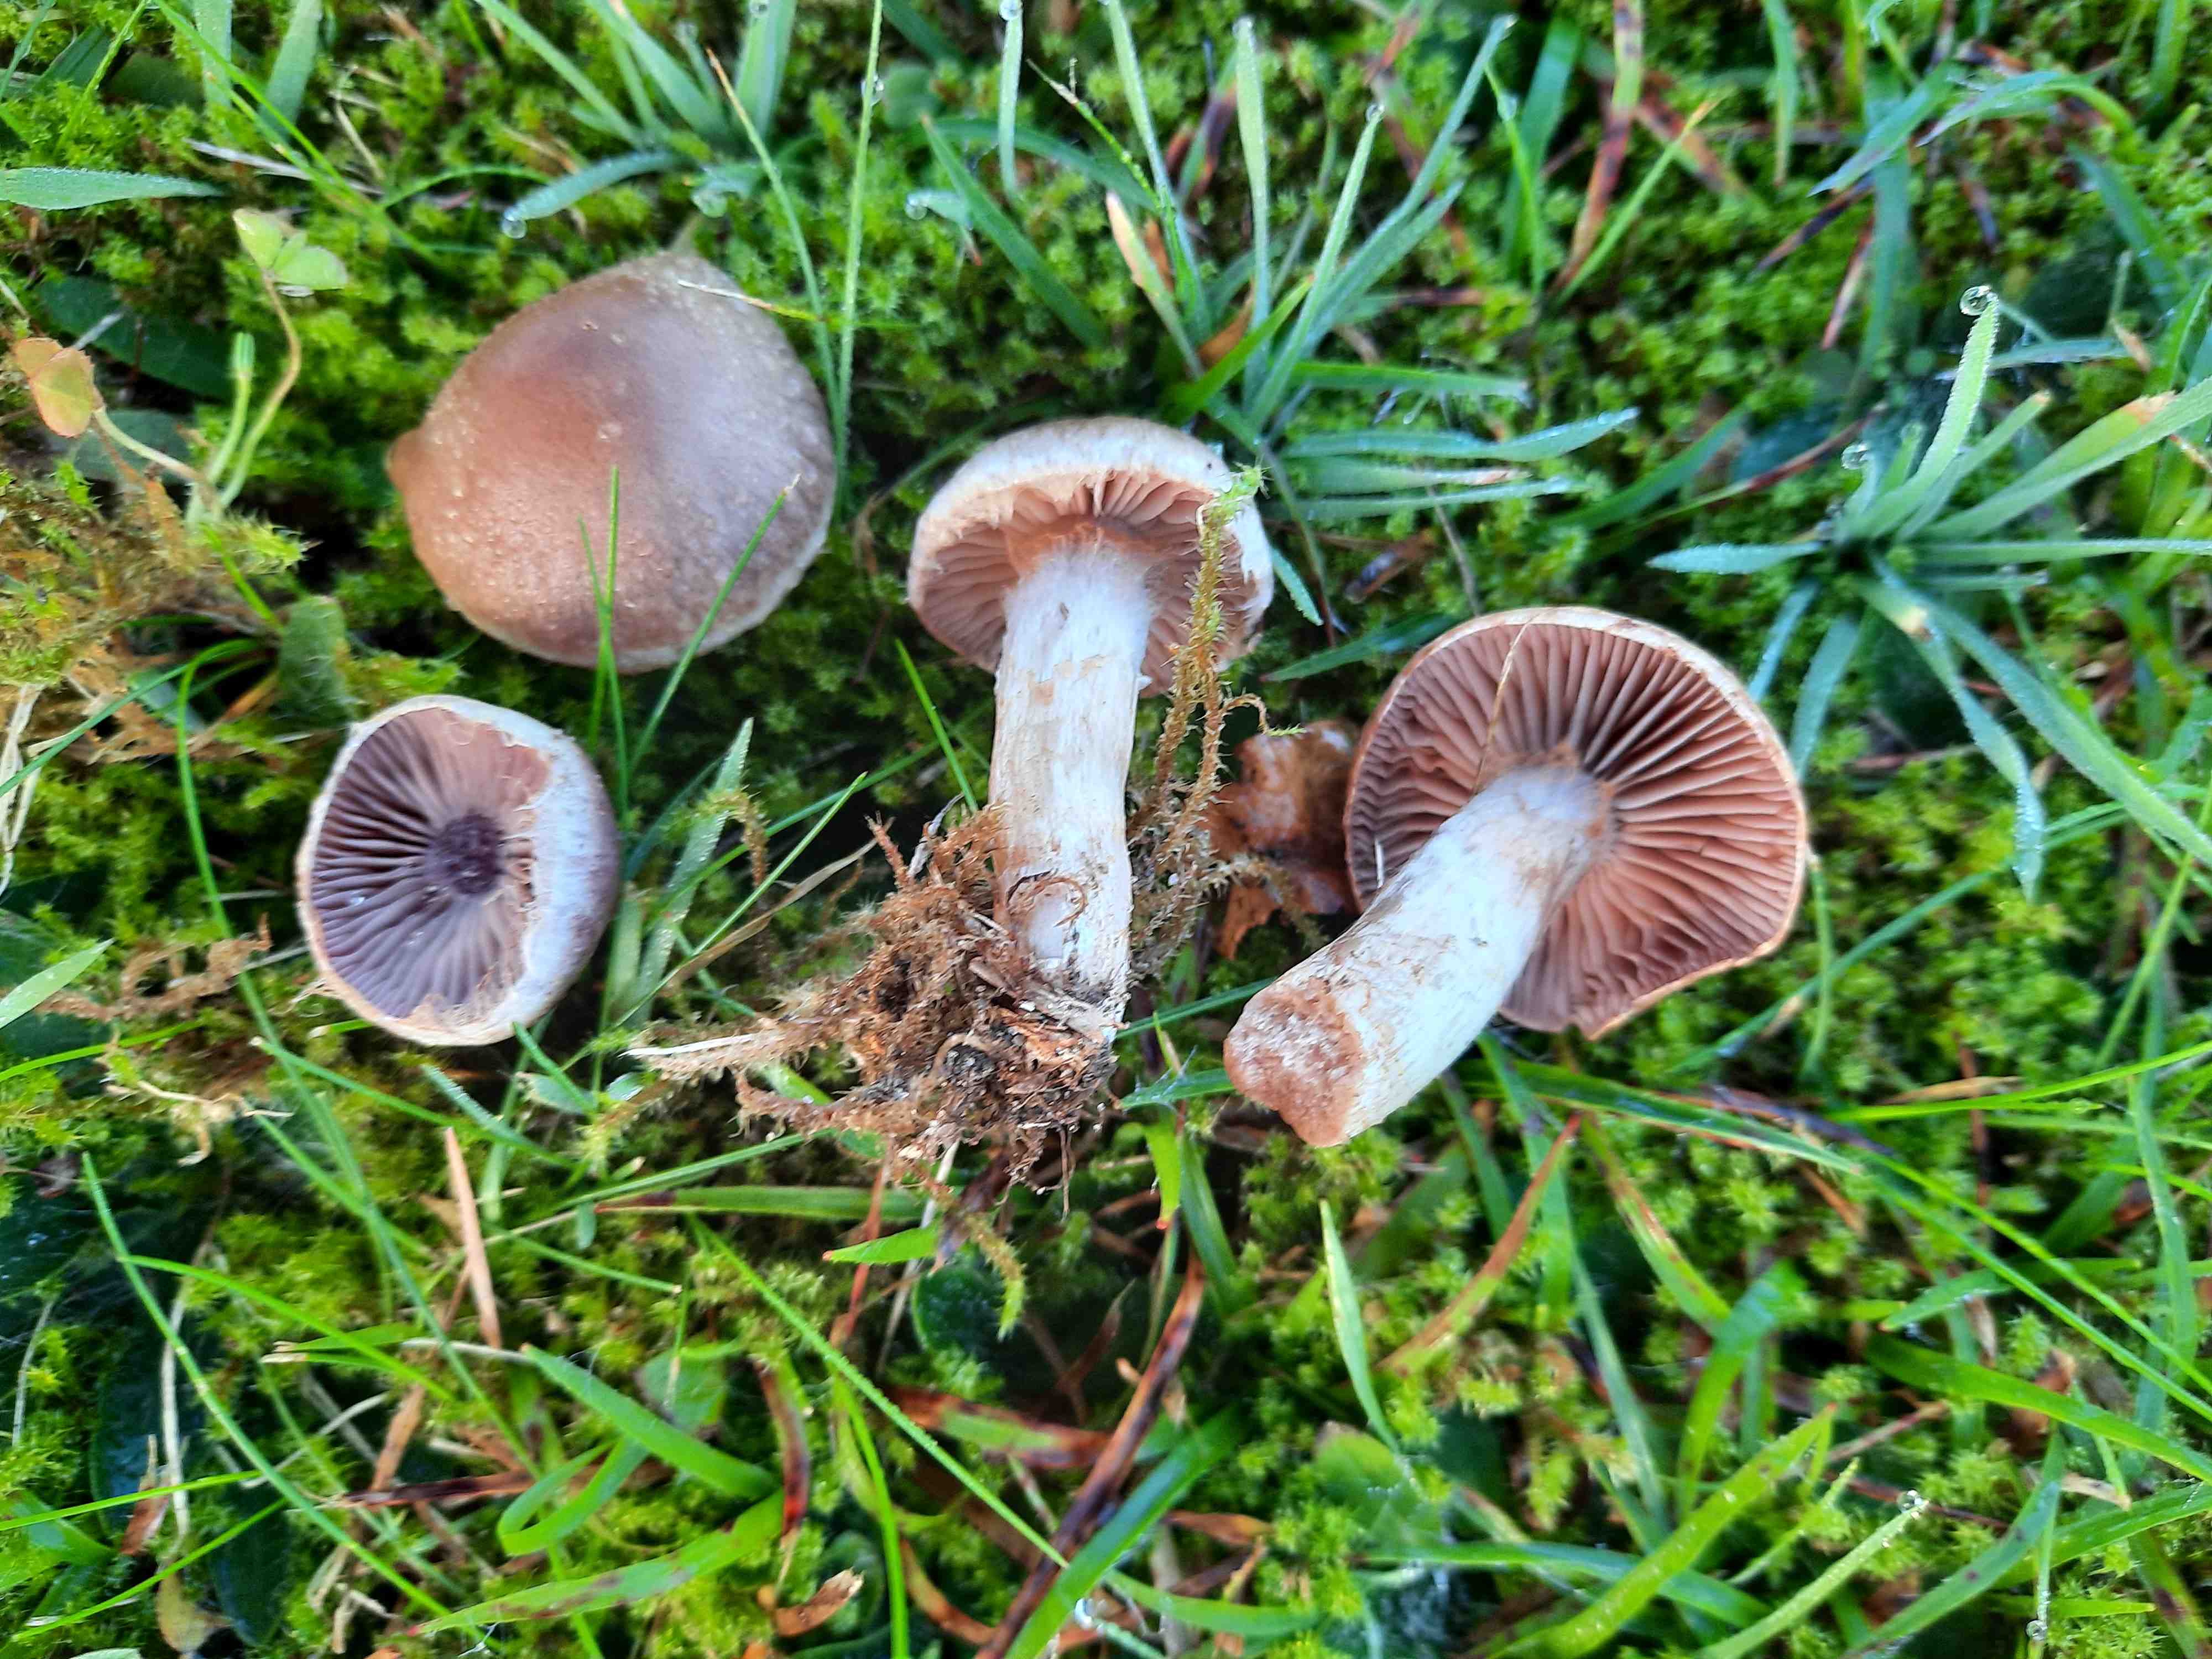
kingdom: Fungi
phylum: Basidiomycota
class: Agaricomycetes
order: Agaricales
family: Cortinariaceae
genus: Cortinarius
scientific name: Cortinarius lucorum
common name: aspe-slørhat
